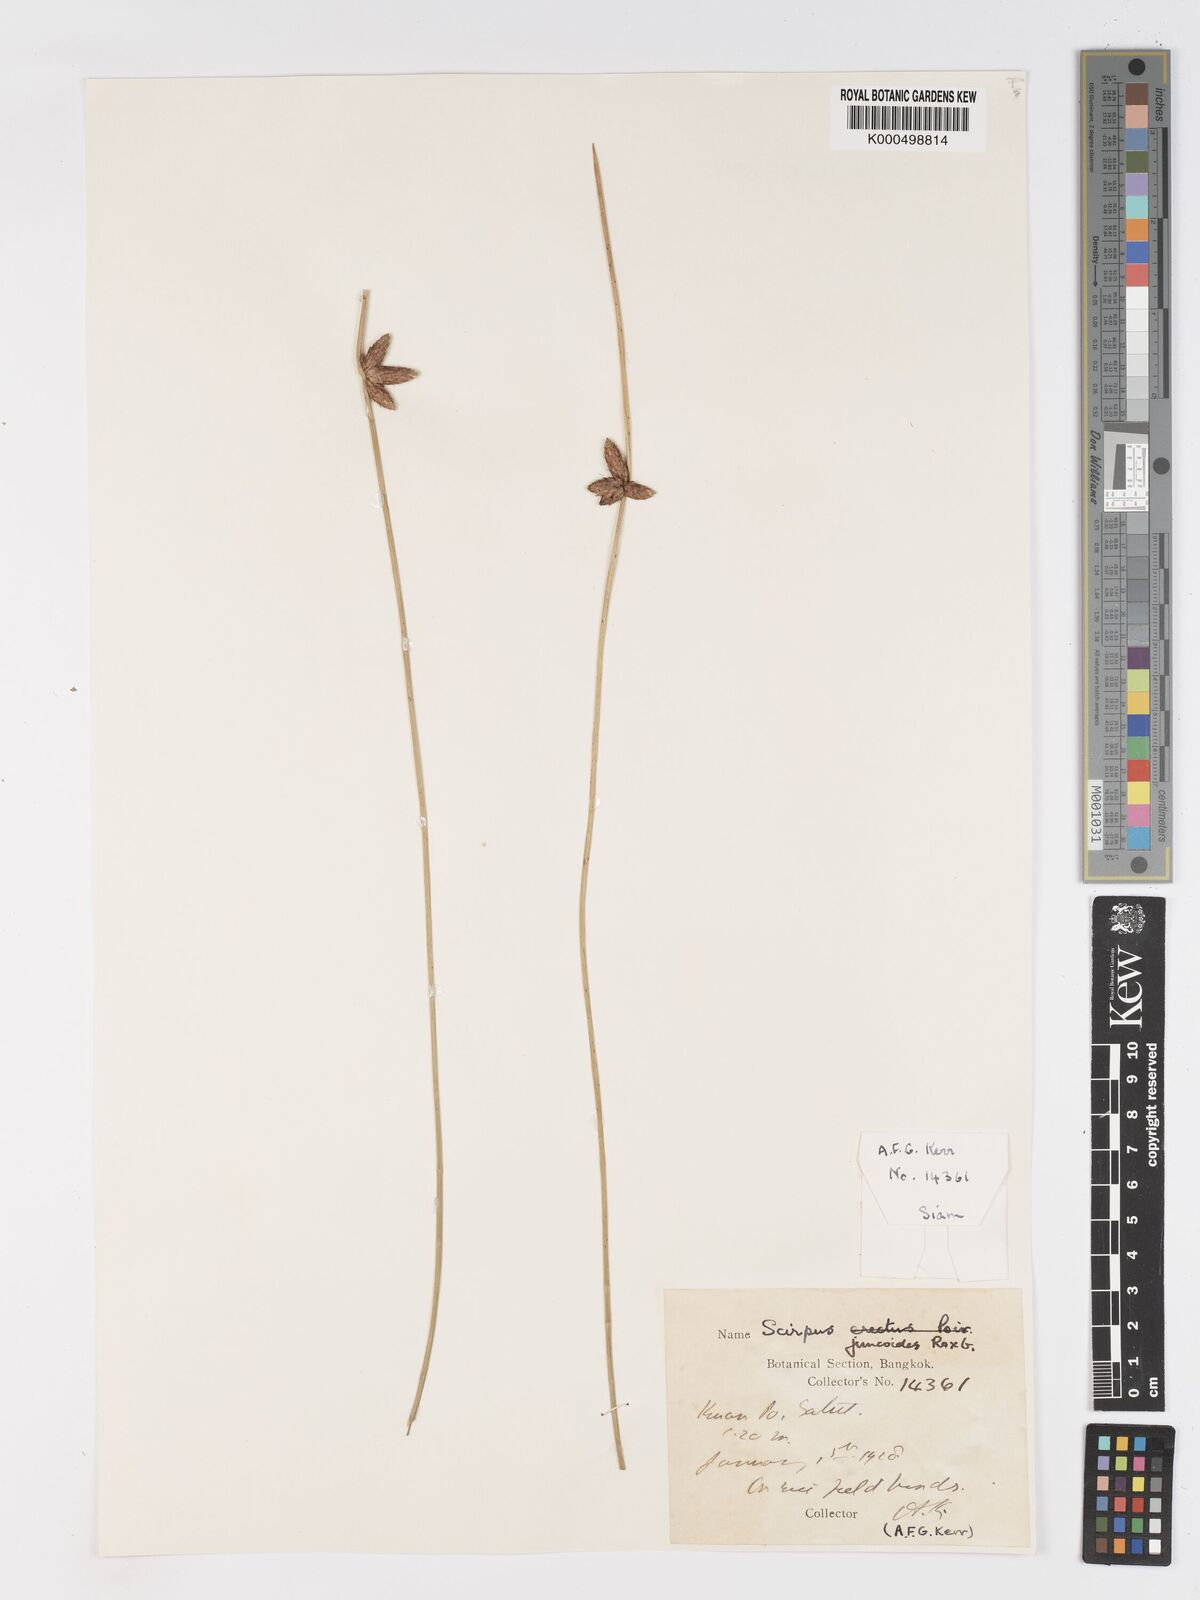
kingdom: Plantae
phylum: Tracheophyta
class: Liliopsida
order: Poales
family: Cyperaceae
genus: Schoenoplectiella
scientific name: Schoenoplectiella juncoides
